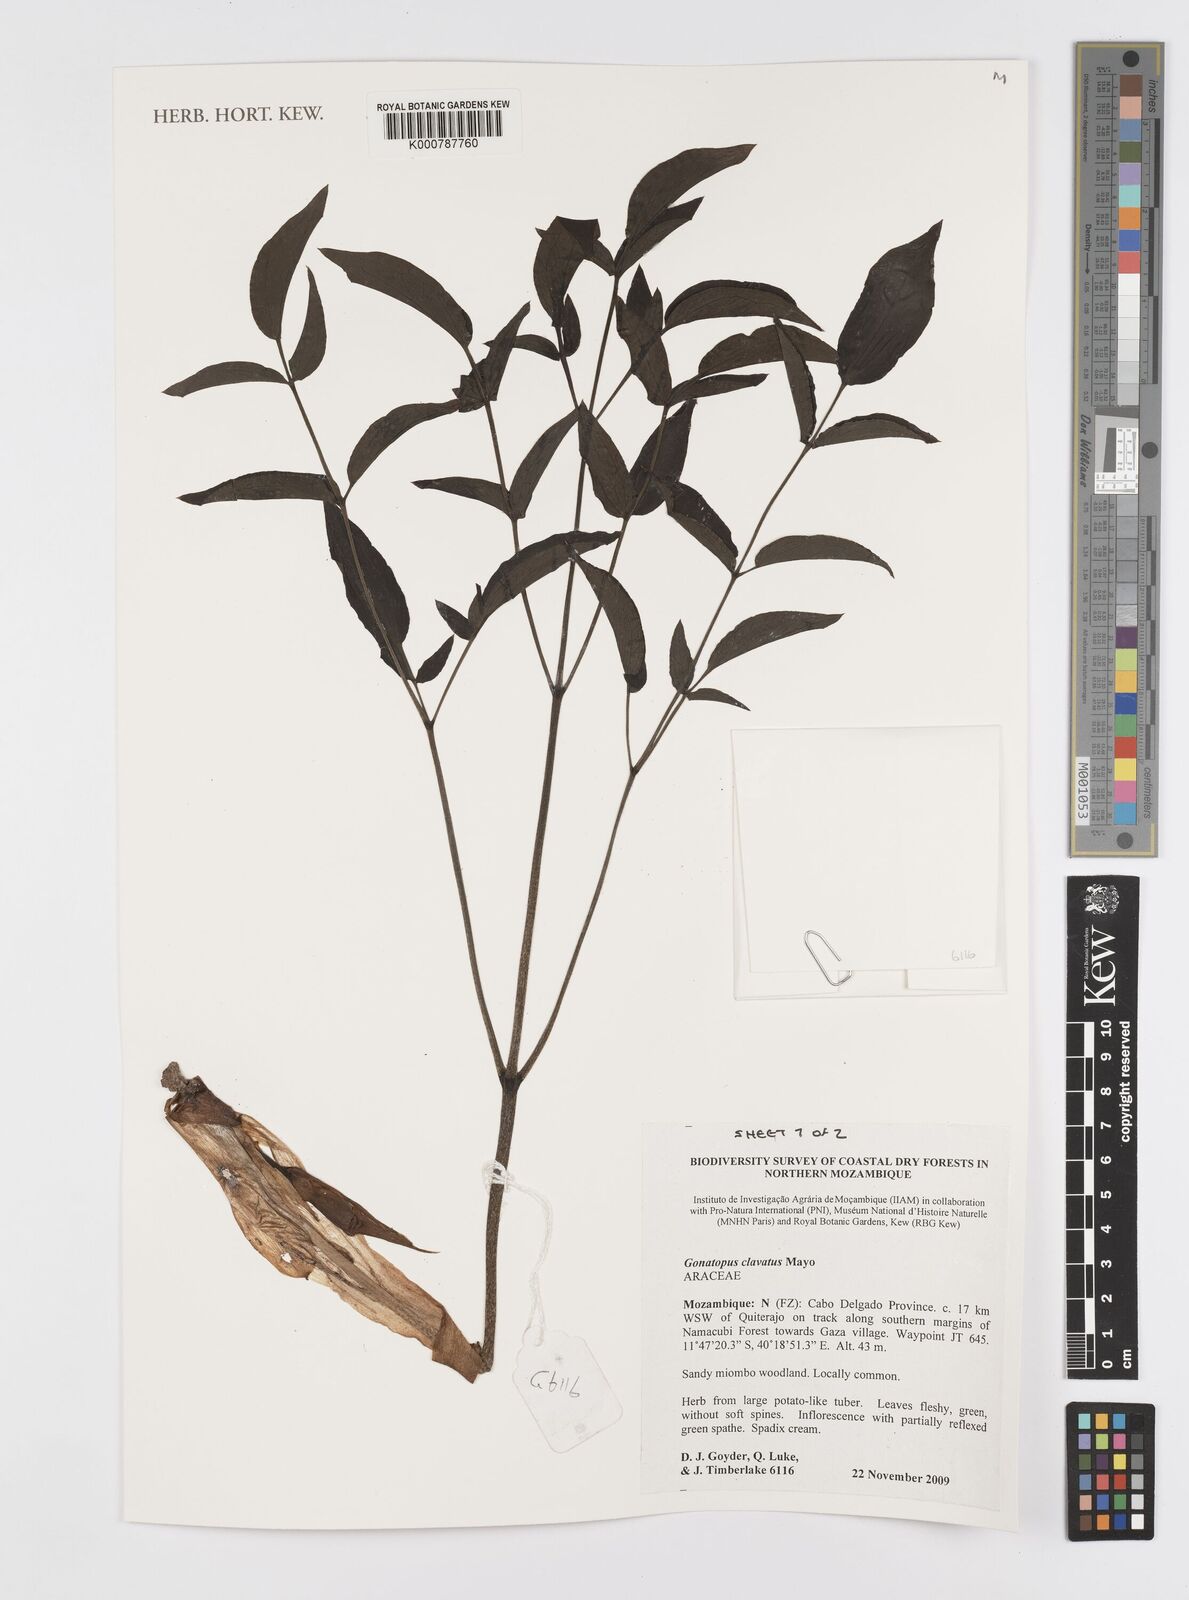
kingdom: Plantae
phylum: Tracheophyta
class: Liliopsida
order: Alismatales
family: Araceae
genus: Gonatopus
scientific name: Gonatopus clavatus
